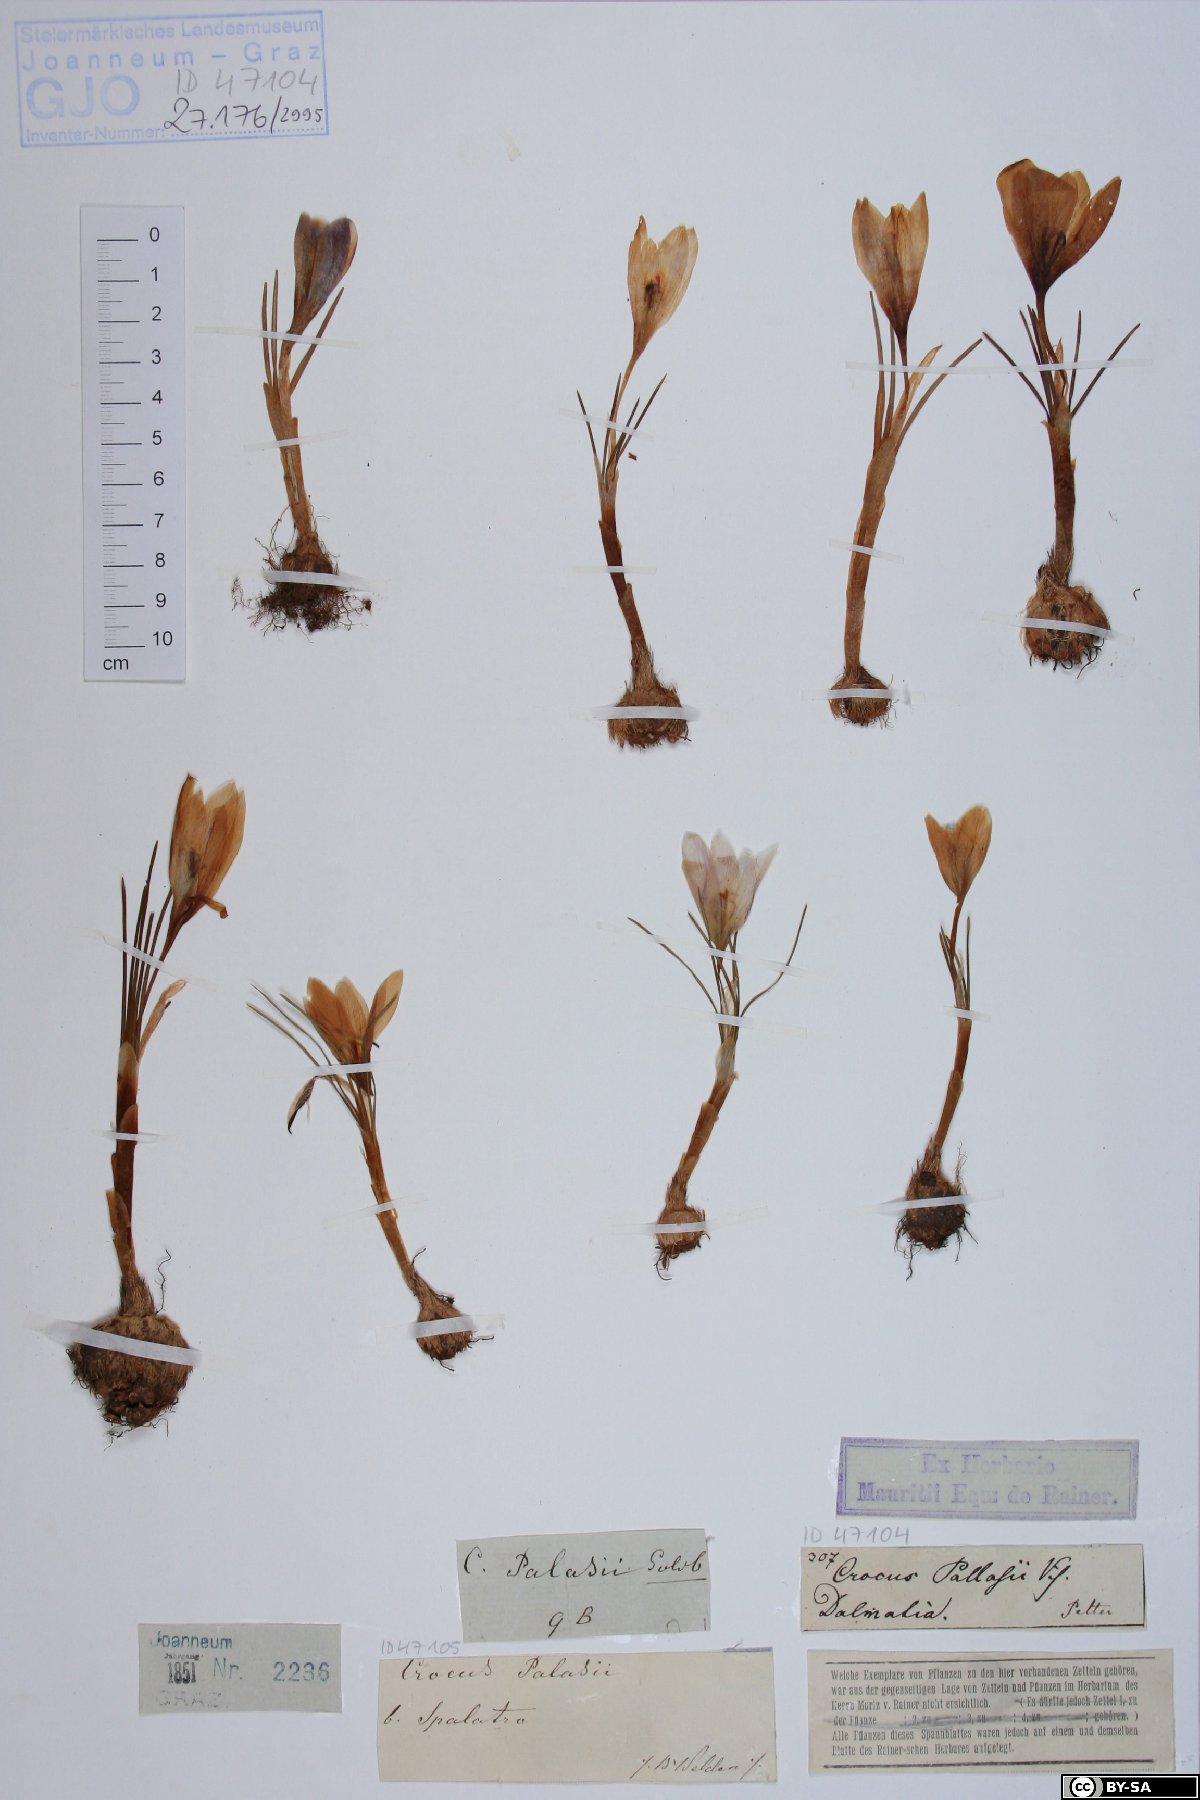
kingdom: Plantae
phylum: Tracheophyta
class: Liliopsida
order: Asparagales
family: Iridaceae
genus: Crocus
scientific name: Crocus pallasii
